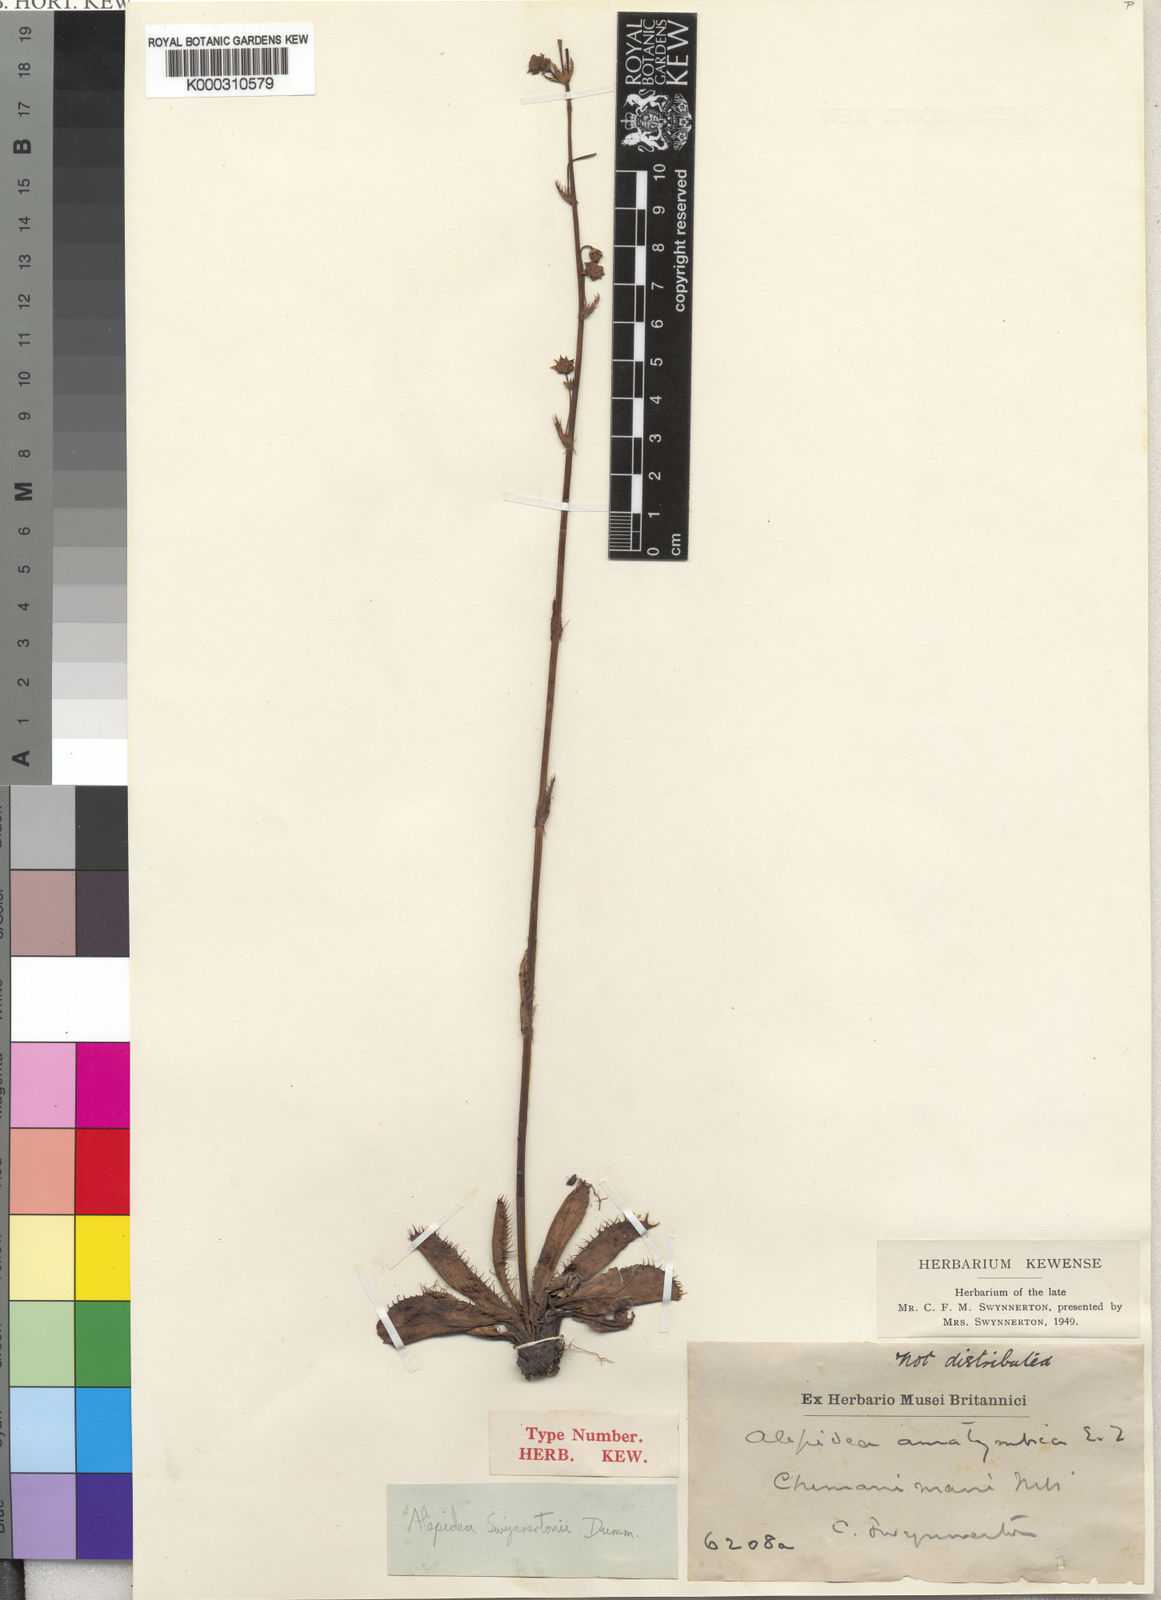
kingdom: Plantae
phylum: Tracheophyta
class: Magnoliopsida
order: Apiales
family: Apiaceae
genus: Alepidea
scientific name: Alepidea
